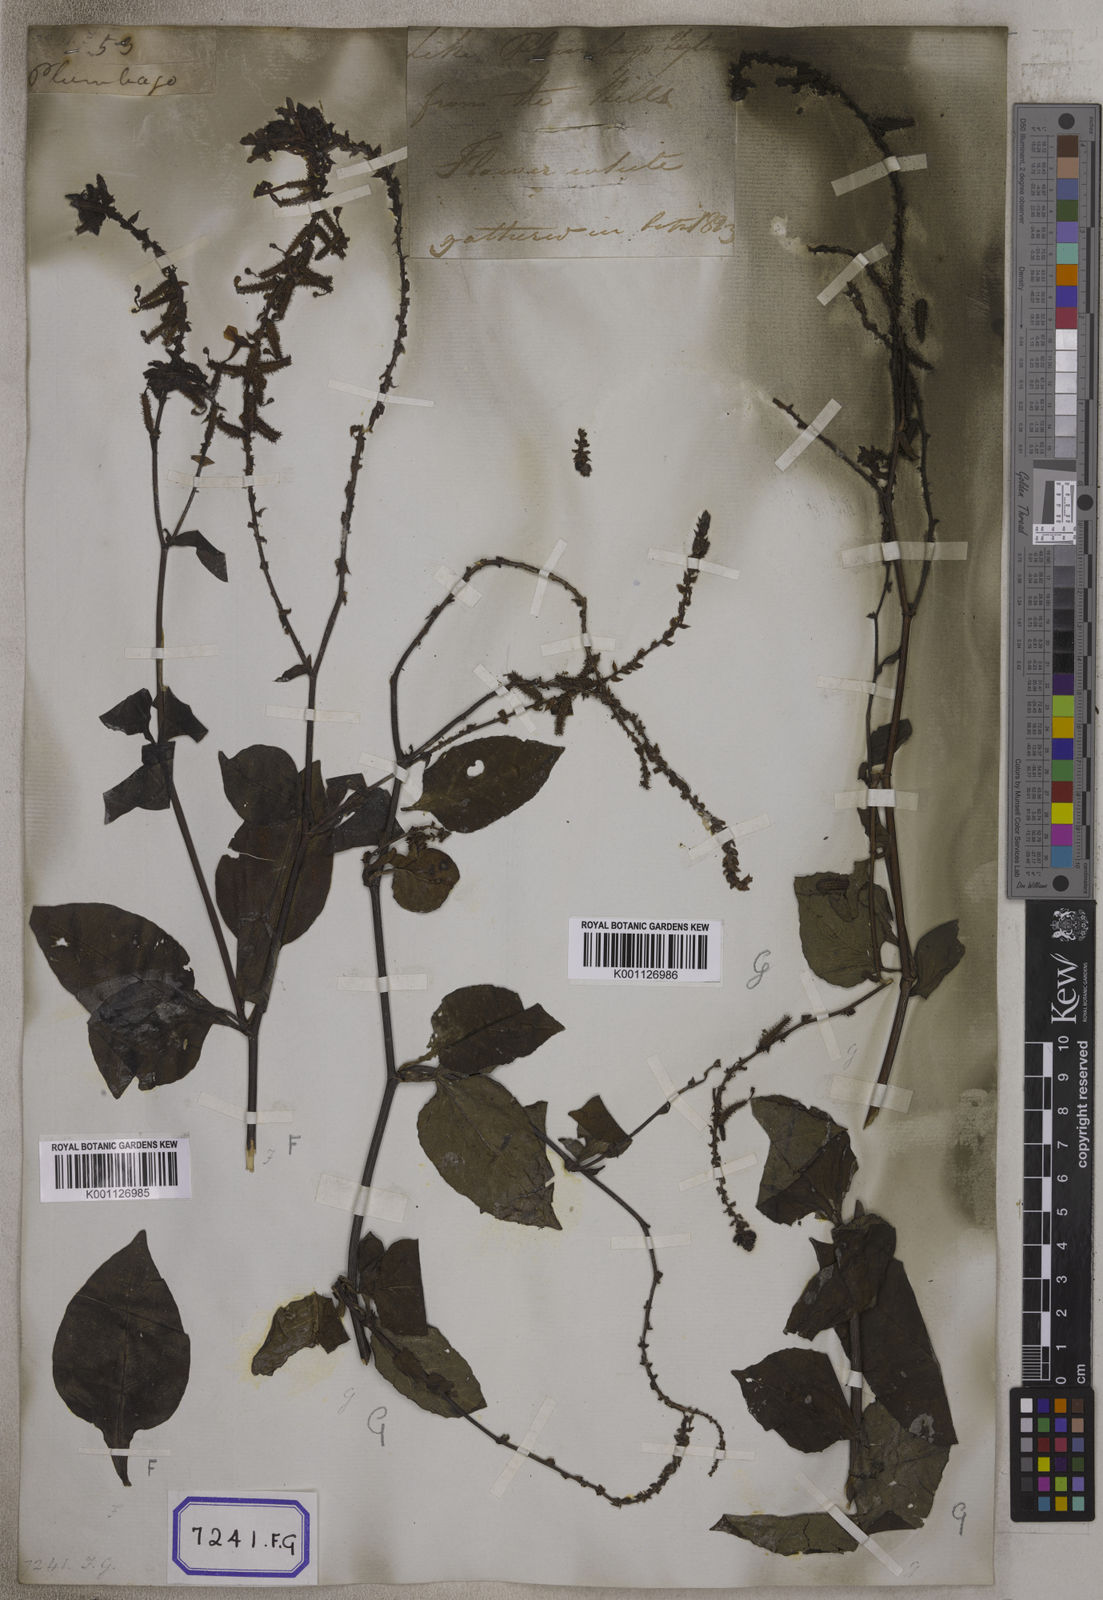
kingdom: Plantae
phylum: Tracheophyta
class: Magnoliopsida
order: Caryophyllales
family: Plumbaginaceae
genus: Plumbago
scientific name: Plumbago zeylanica
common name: Doctorbush
